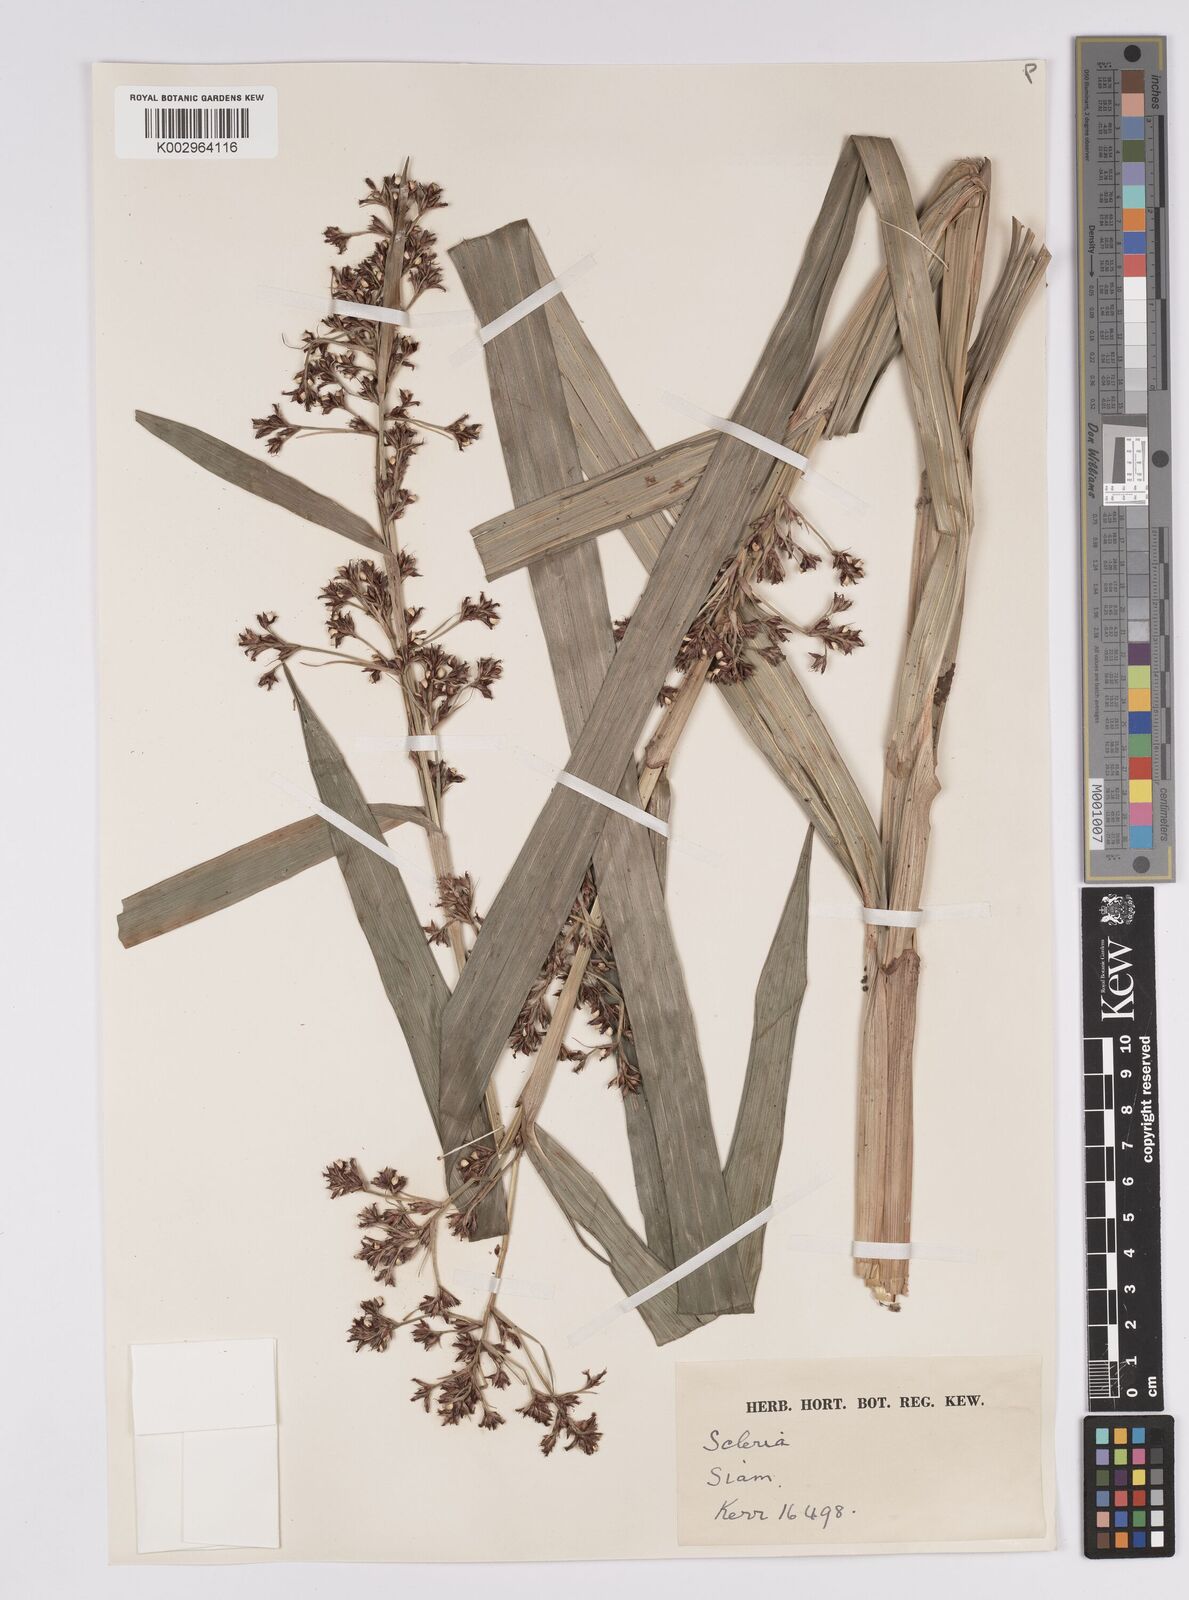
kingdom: Plantae
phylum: Tracheophyta
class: Liliopsida
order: Poales
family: Cyperaceae
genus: Scleria
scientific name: Scleria corymbosa
